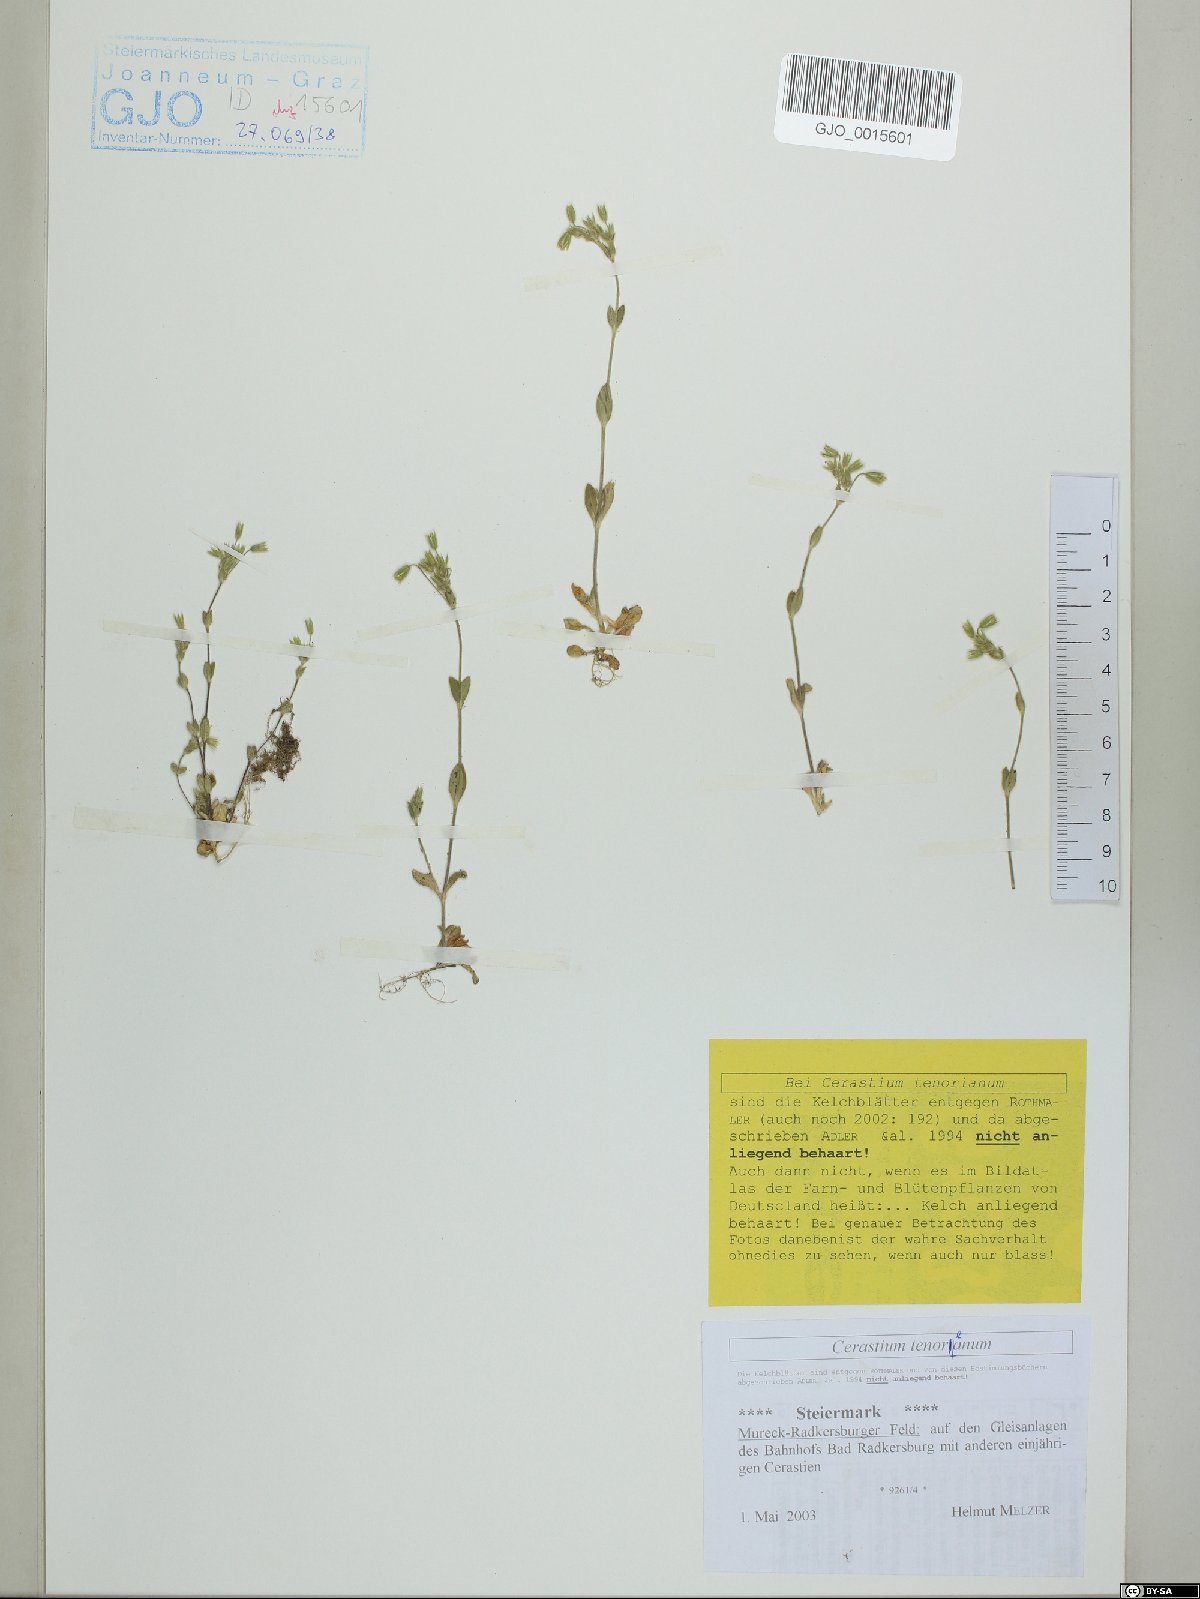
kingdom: Plantae
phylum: Tracheophyta
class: Magnoliopsida
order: Caryophyllales
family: Caryophyllaceae
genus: Cerastium
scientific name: Cerastium tenoreanum
